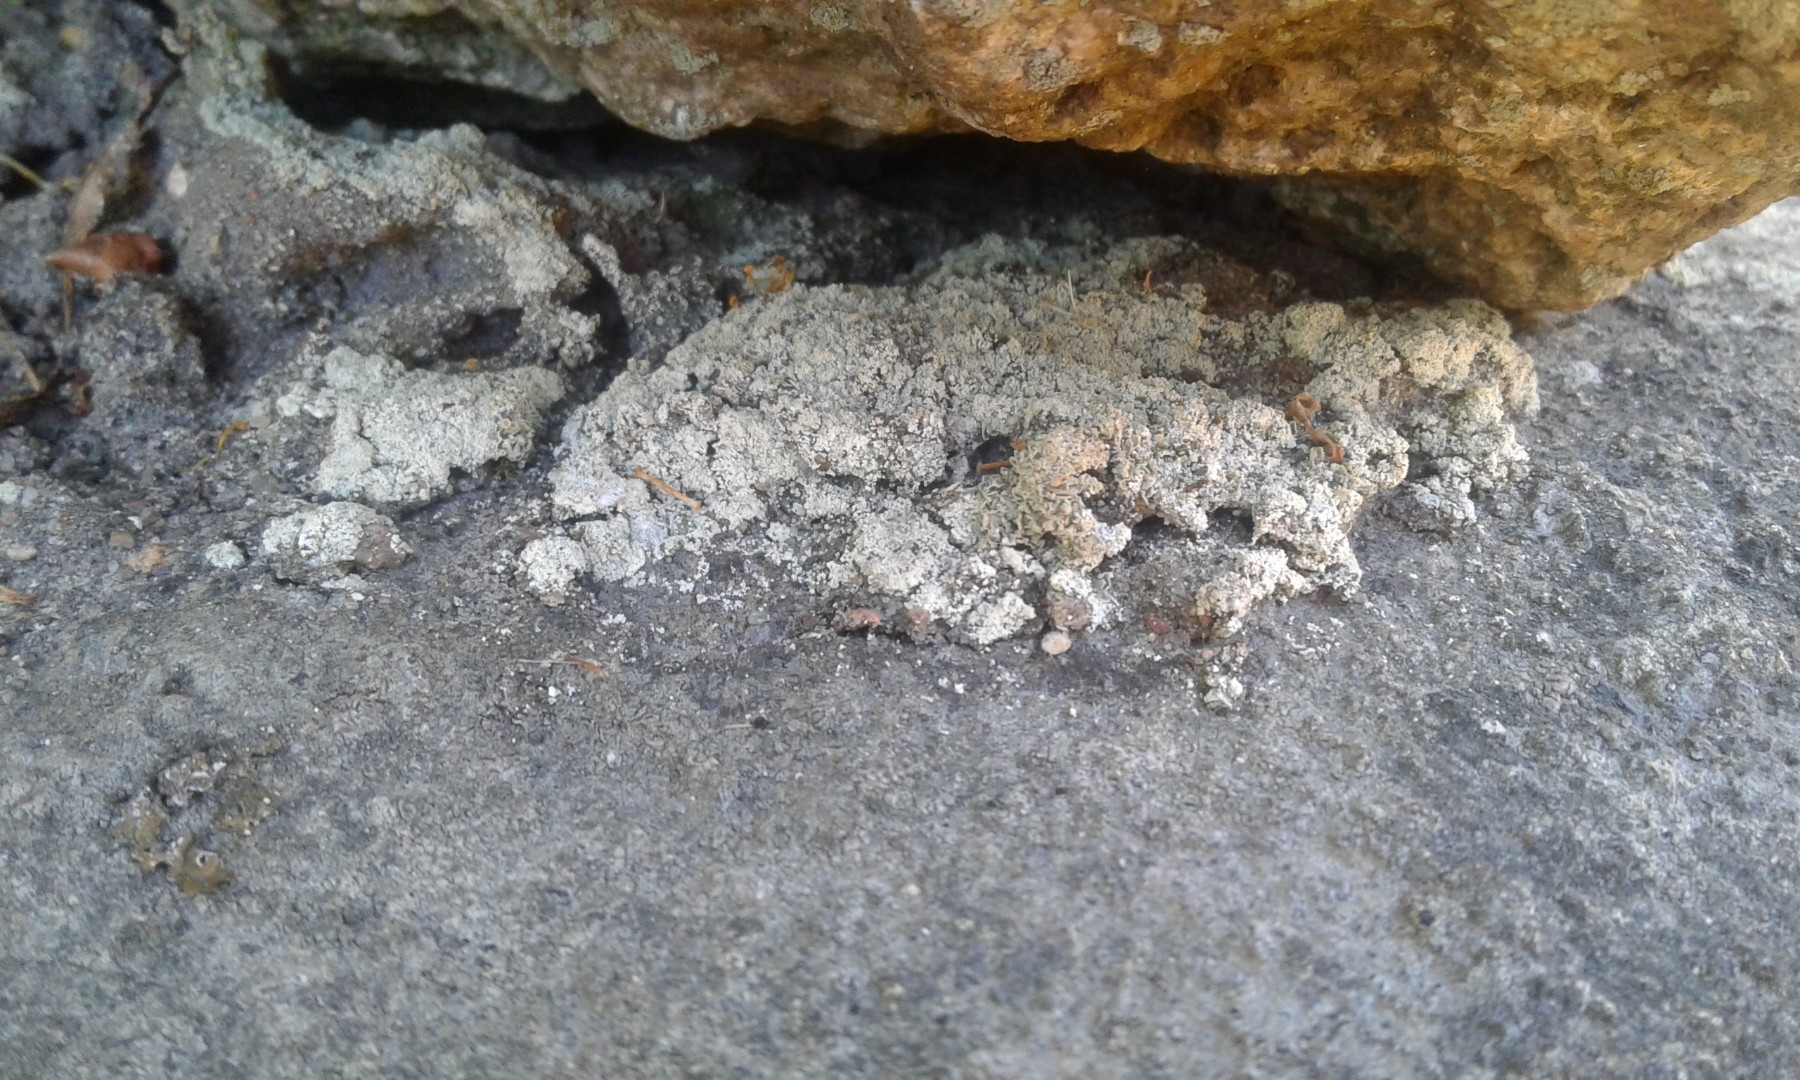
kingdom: Fungi
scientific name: Fungi
